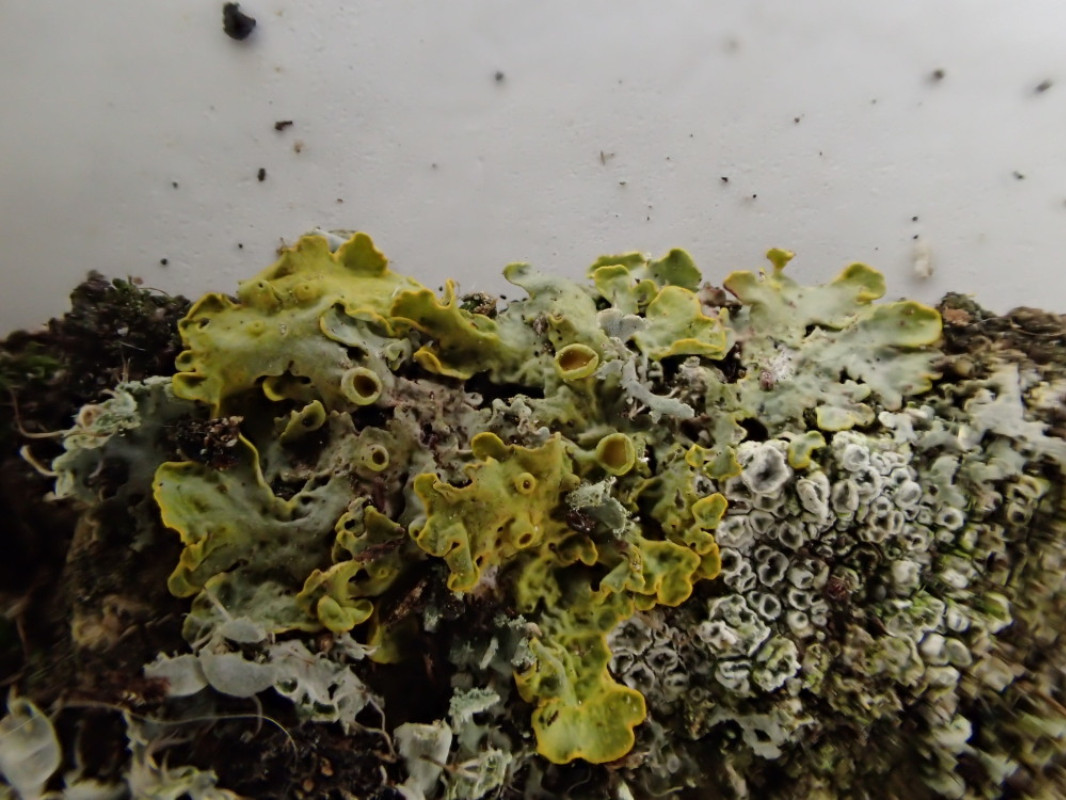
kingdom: Fungi
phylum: Ascomycota
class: Lecanoromycetes
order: Teloschistales
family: Teloschistaceae
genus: Xanthoria
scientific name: Xanthoria parietina
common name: almindelig væggelav
